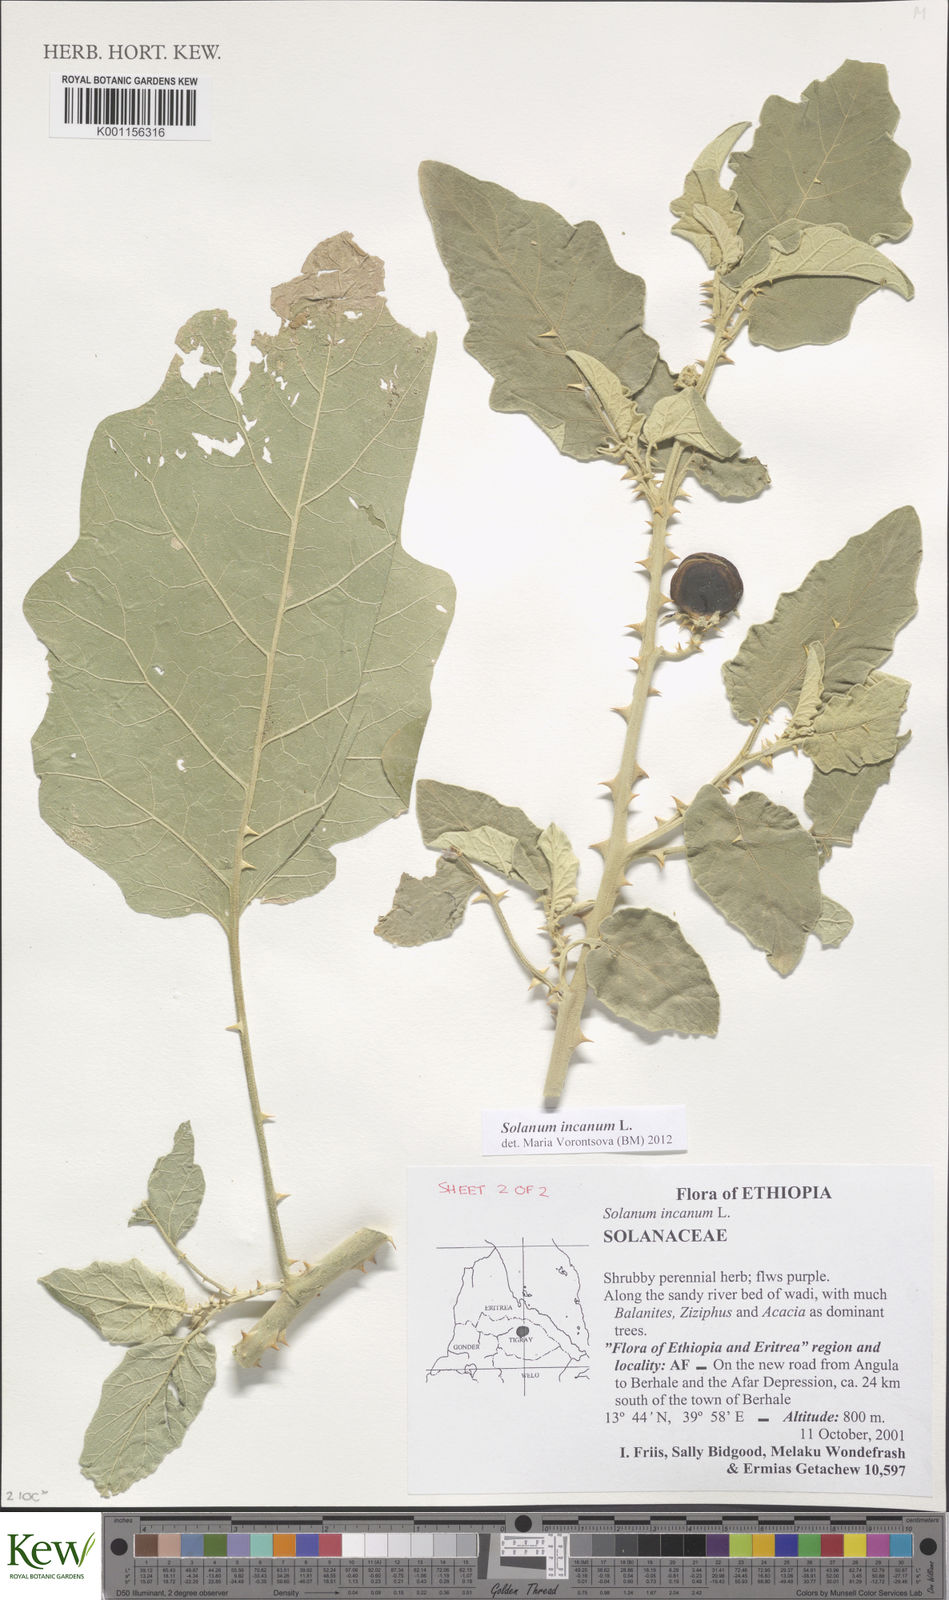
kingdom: Plantae
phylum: Tracheophyta
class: Magnoliopsida
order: Solanales
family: Solanaceae
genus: Solanum
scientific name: Solanum incanum
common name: Bitter apple
